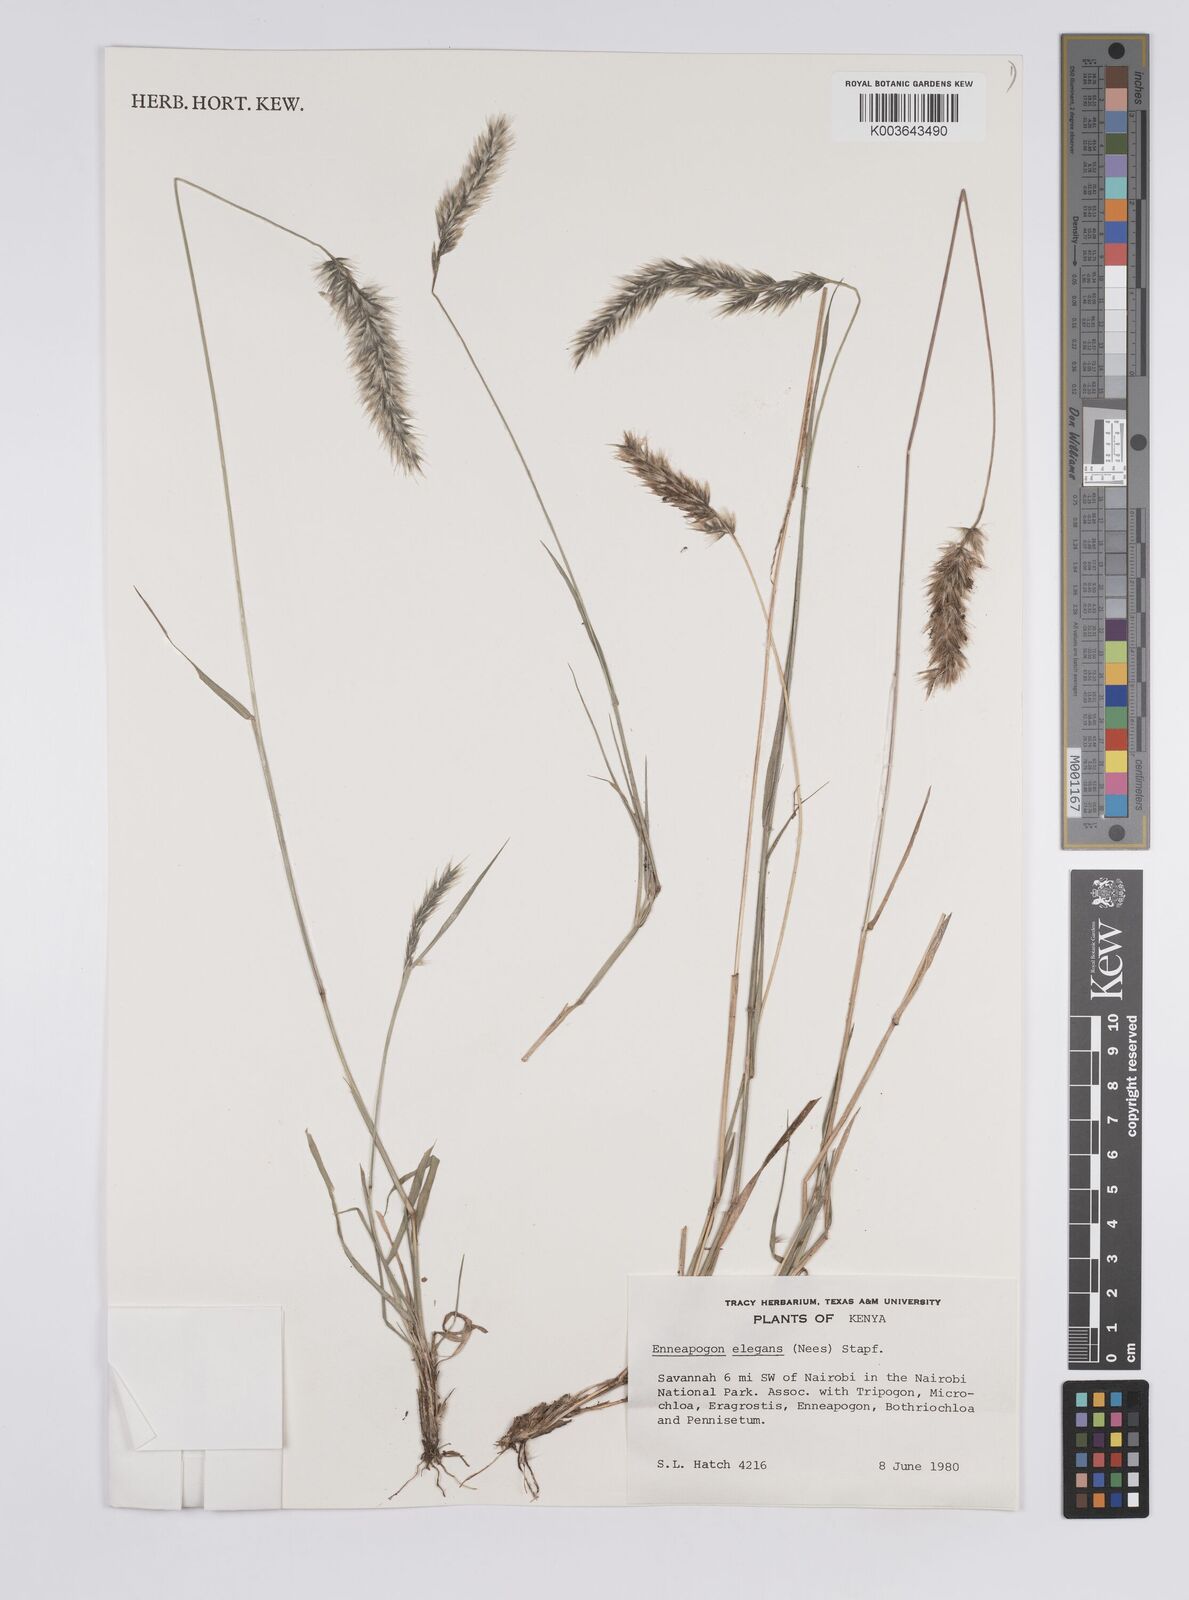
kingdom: Plantae
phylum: Tracheophyta
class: Liliopsida
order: Poales
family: Poaceae
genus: Enneapogon
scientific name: Enneapogon persicus
